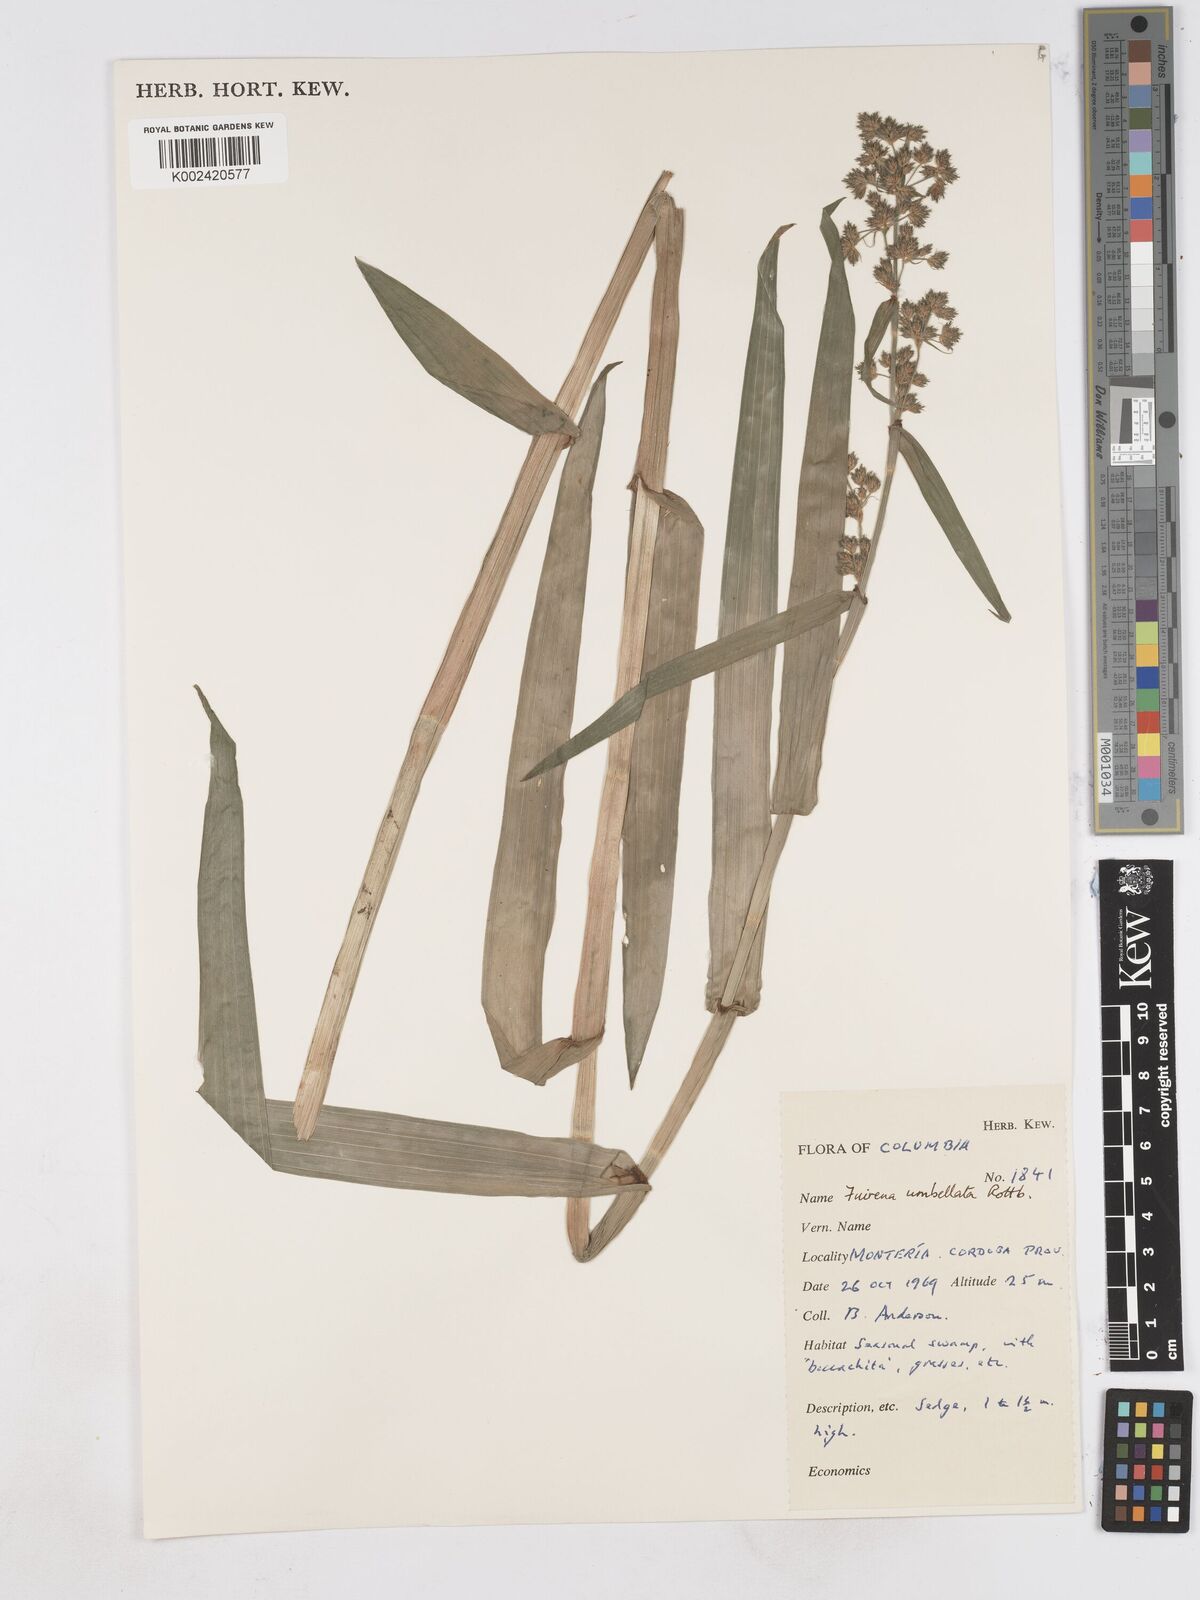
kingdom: Plantae
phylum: Tracheophyta
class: Liliopsida
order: Poales
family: Cyperaceae
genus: Fuirena
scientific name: Fuirena umbellata
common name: Yefen
